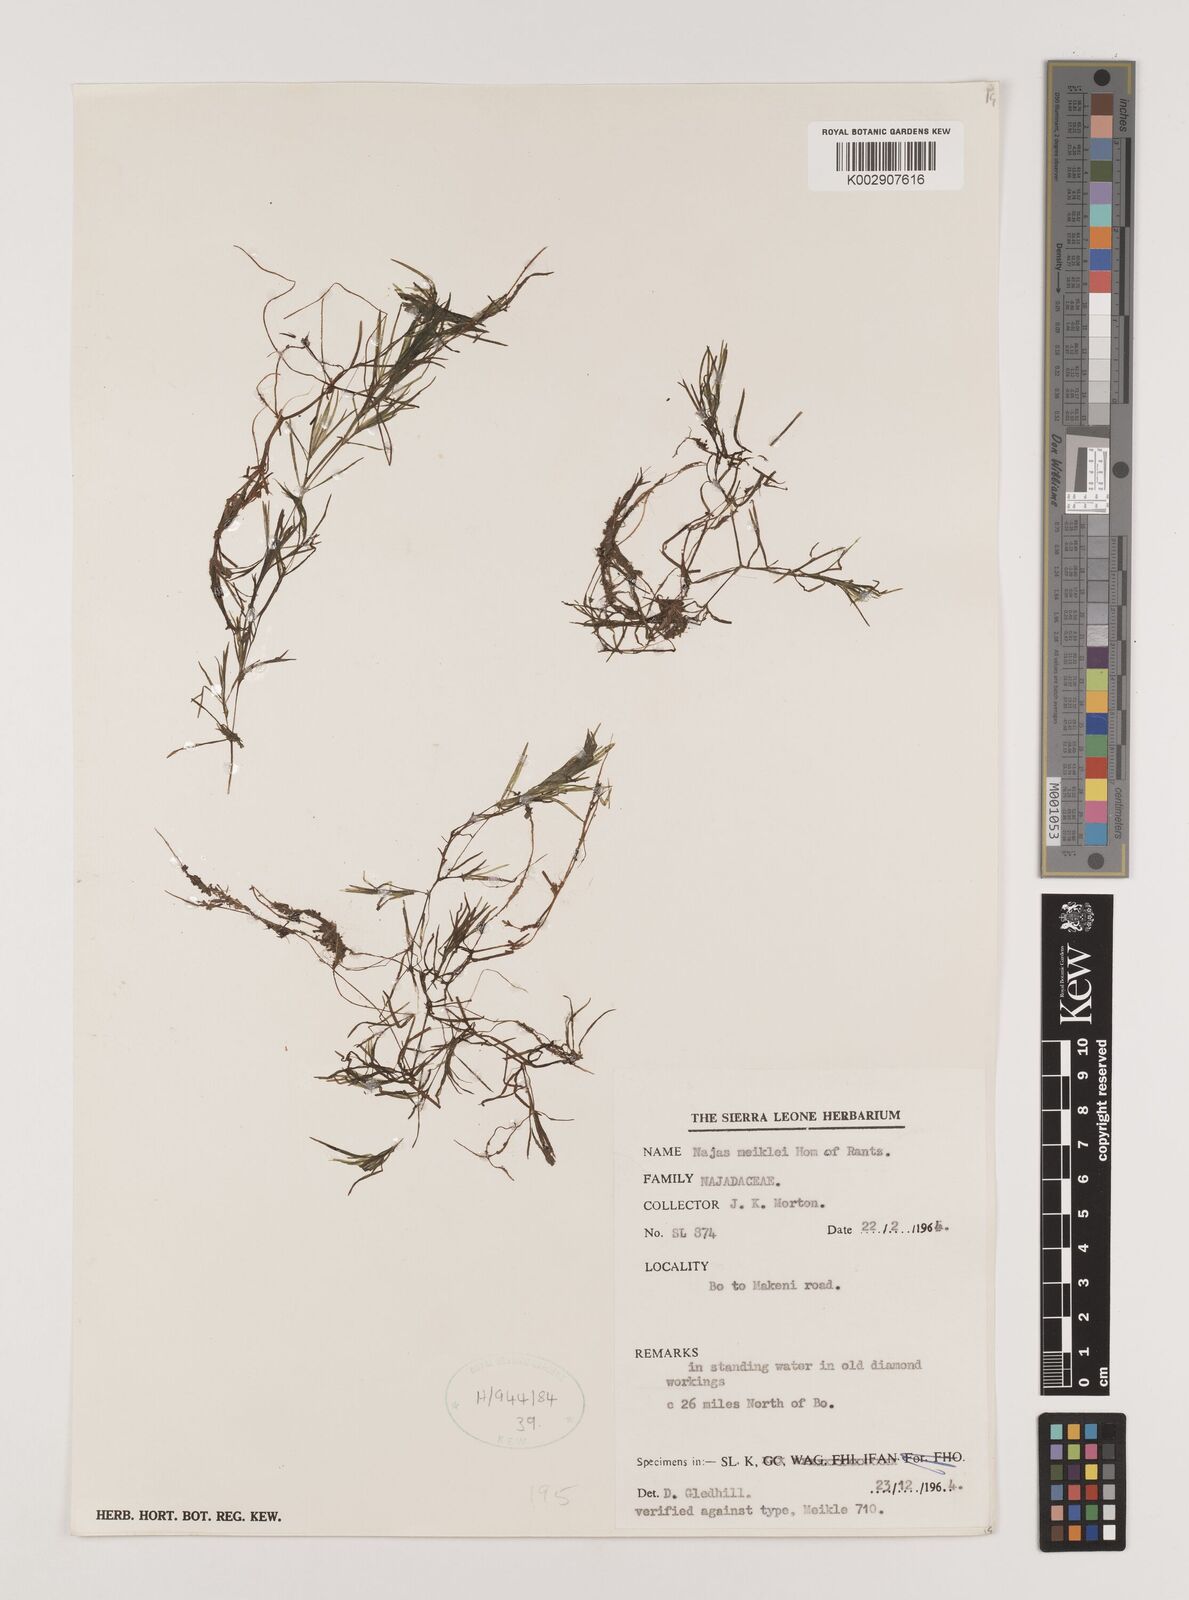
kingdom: Plantae
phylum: Tracheophyta
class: Liliopsida
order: Alismatales
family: Hydrocharitaceae
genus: Najas
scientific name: Najas testui
